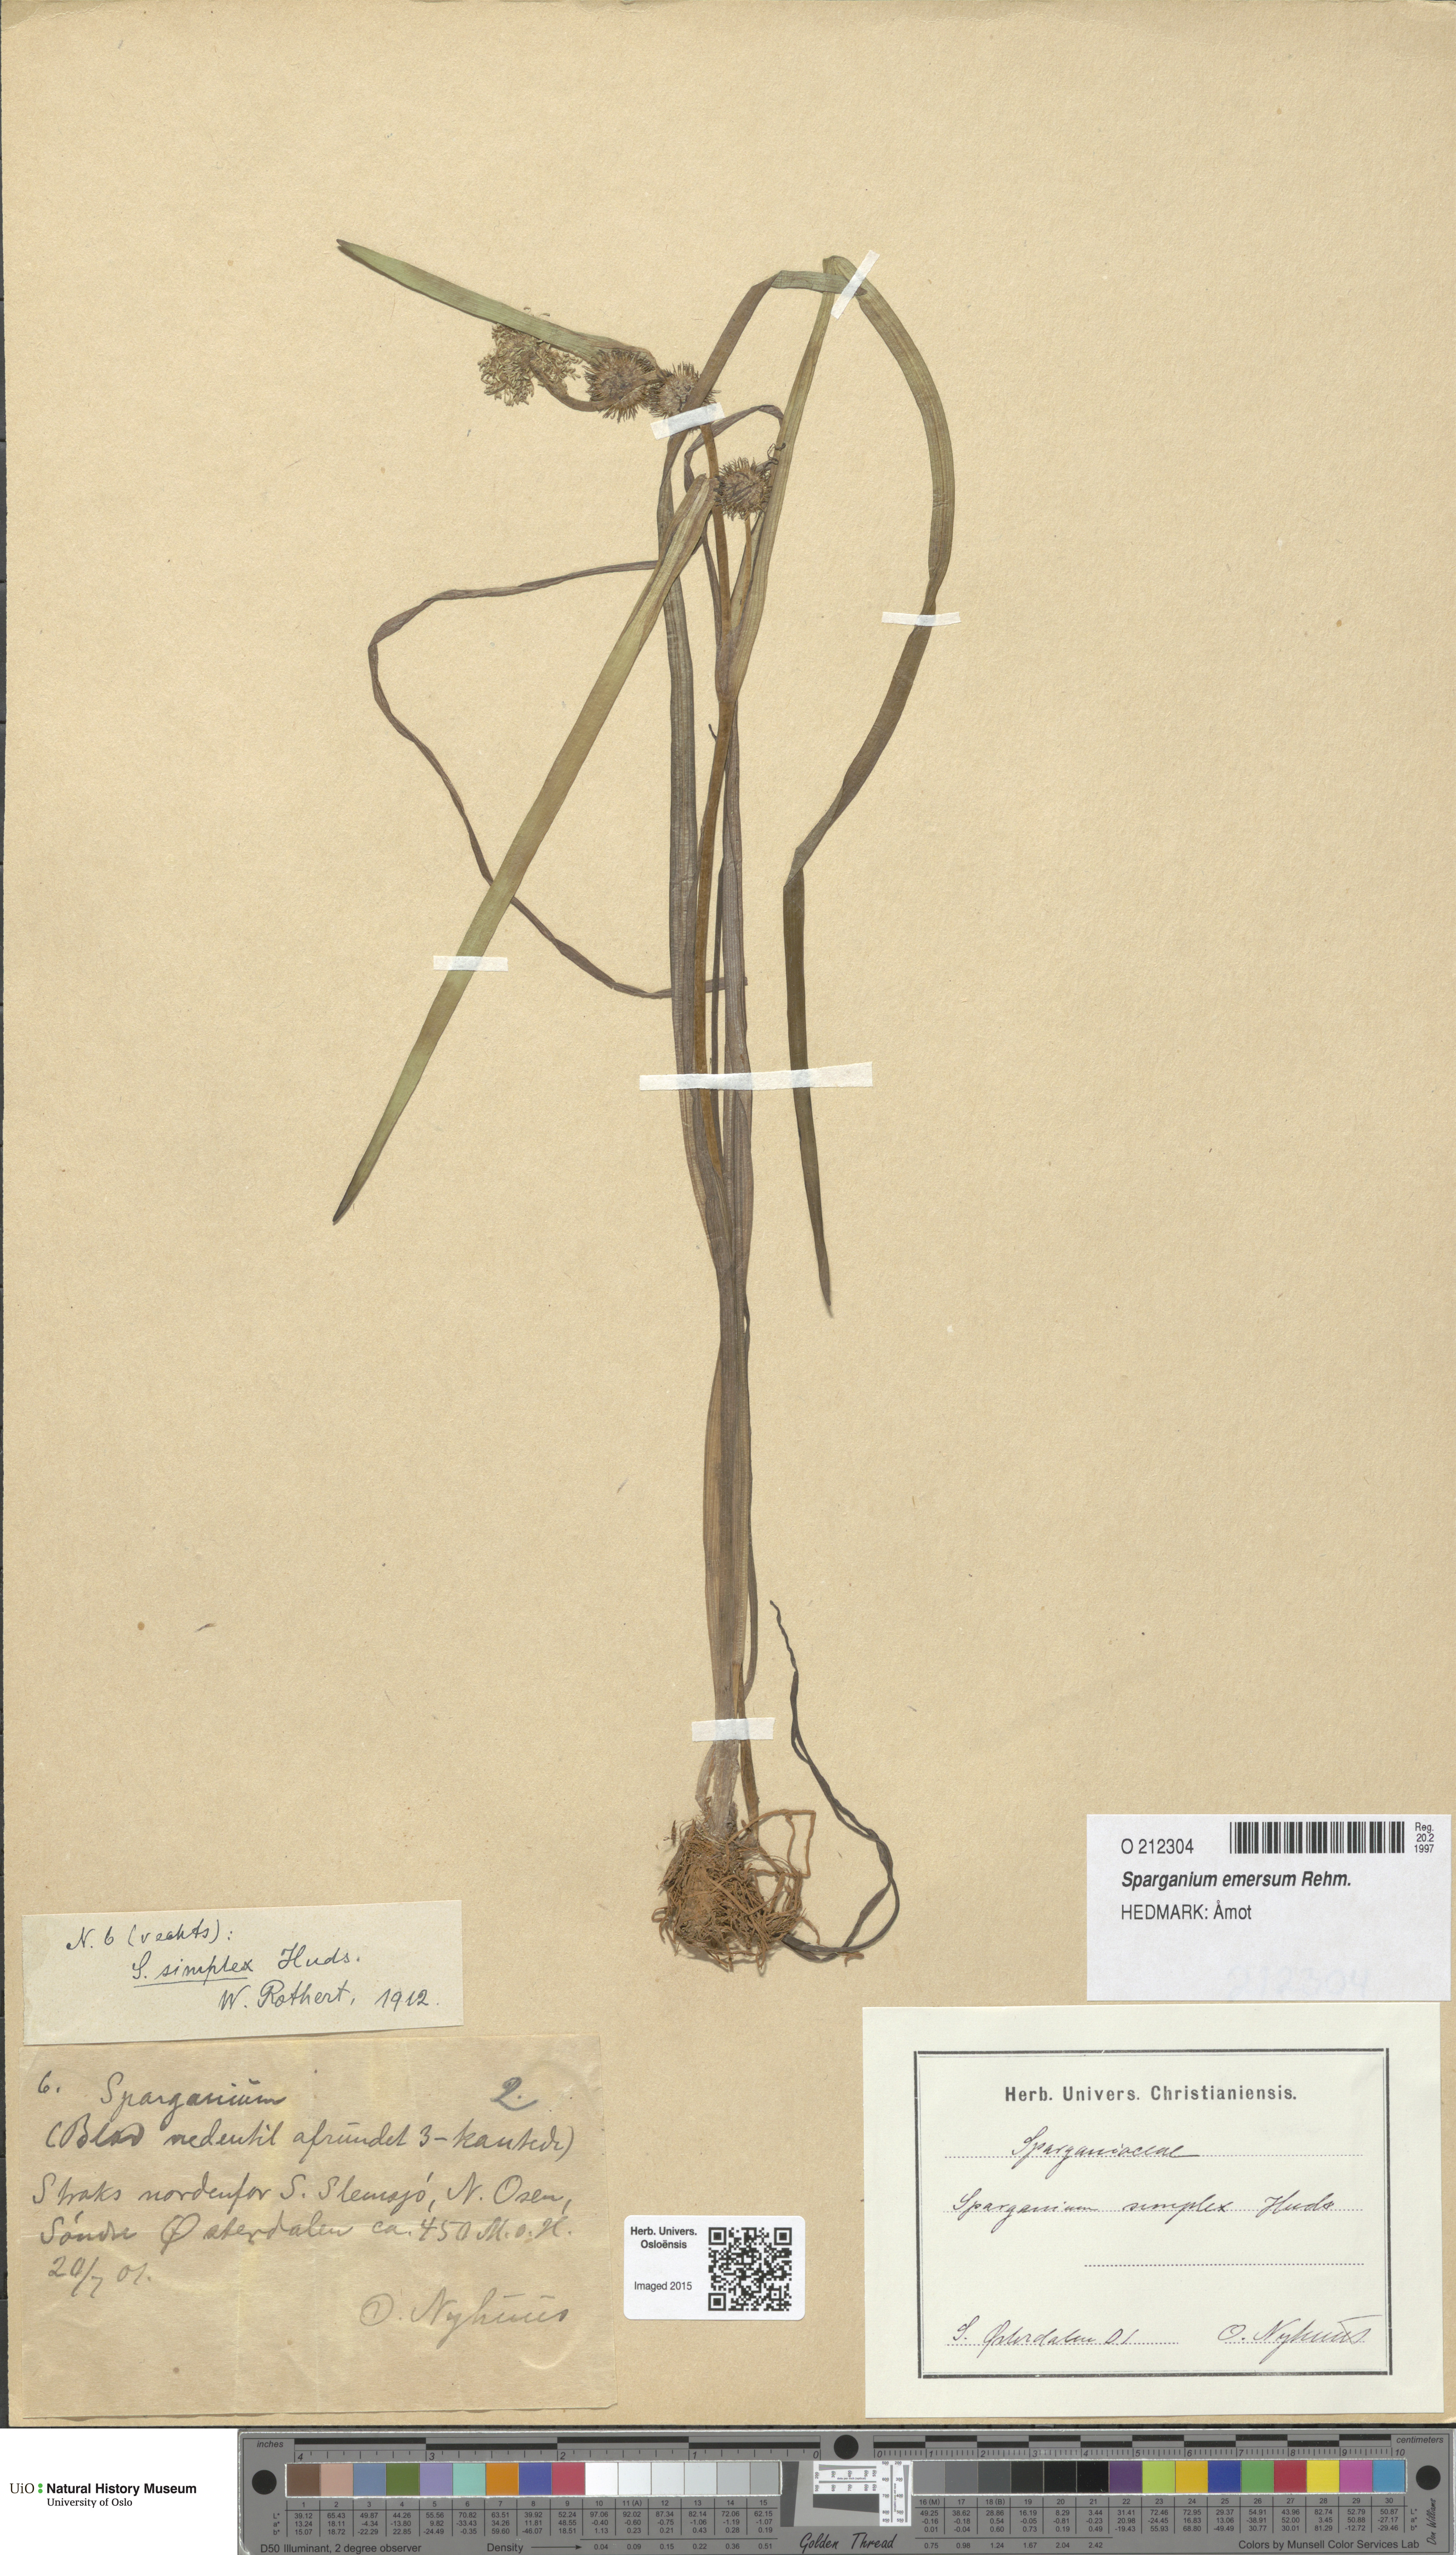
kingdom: Plantae
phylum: Tracheophyta
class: Liliopsida
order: Poales
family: Typhaceae
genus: Sparganium
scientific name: Sparganium emersum
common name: Unbranched bur-reed
